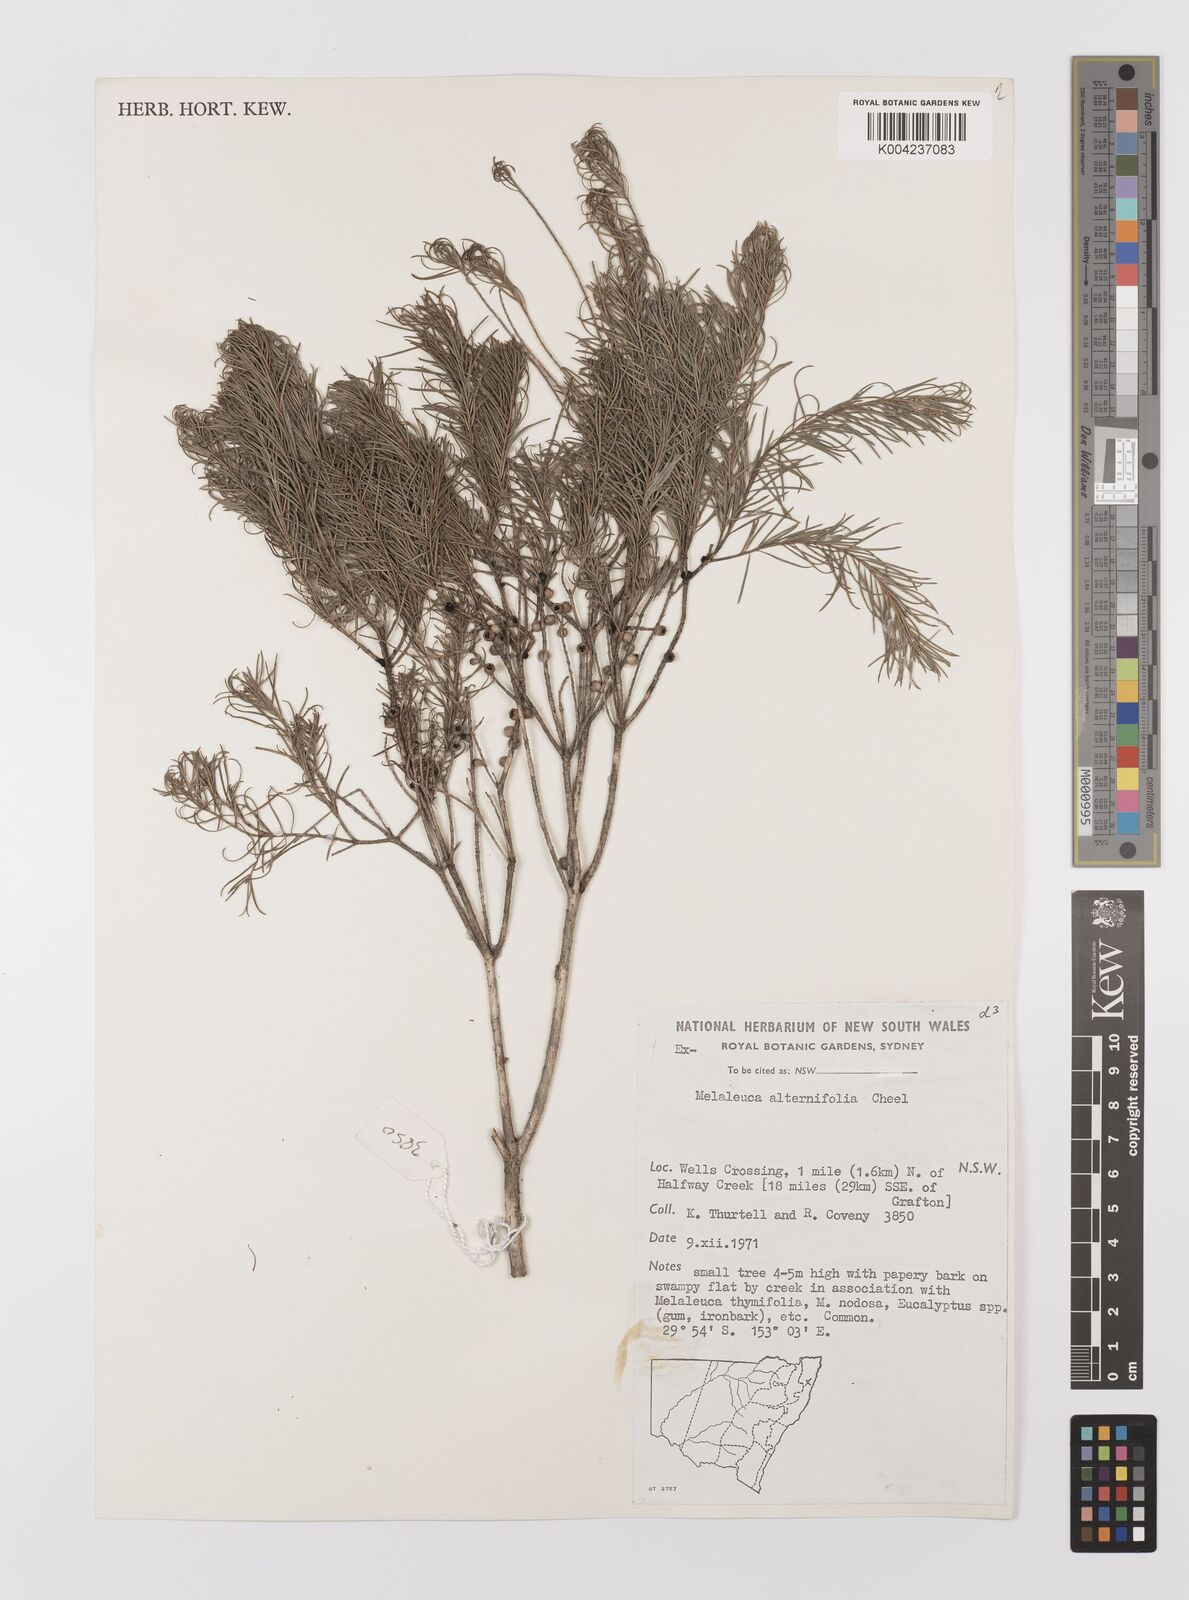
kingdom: Plantae
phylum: Tracheophyta
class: Magnoliopsida
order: Myrtales
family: Myrtaceae
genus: Melaleuca
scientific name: Melaleuca alternifolia
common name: Narrow-leaf paperbark
